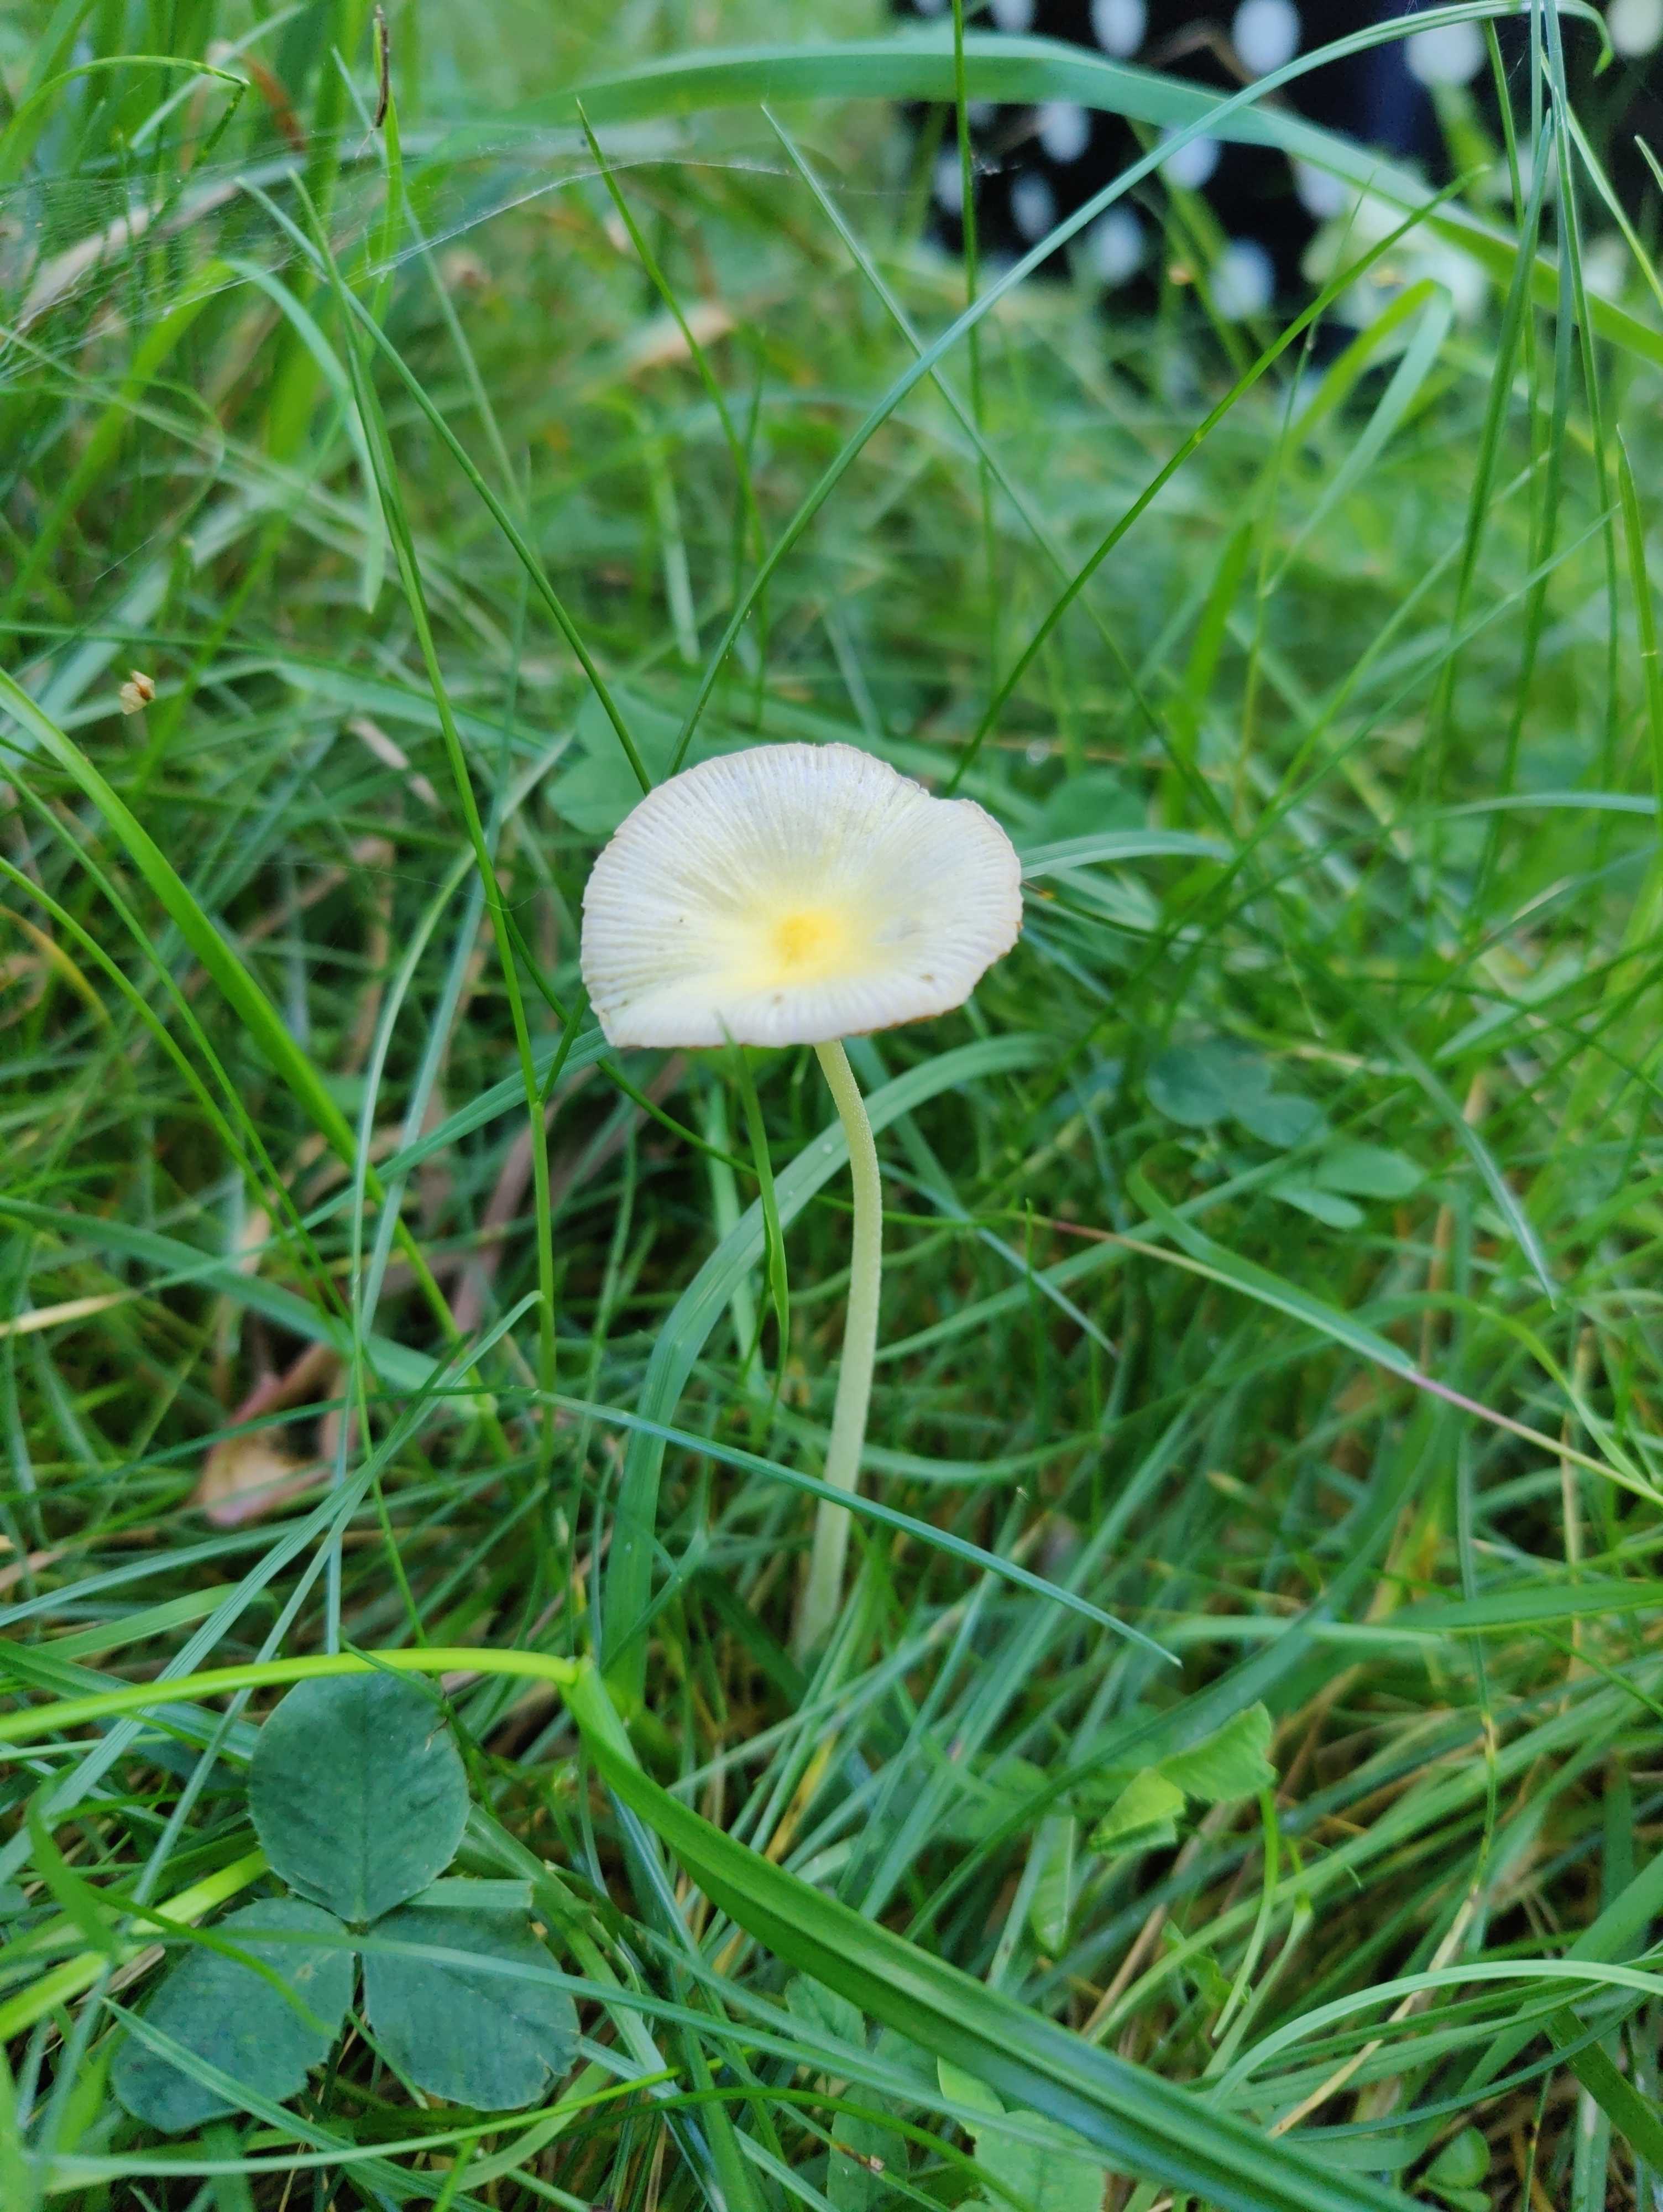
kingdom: Fungi
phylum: Basidiomycota
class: Agaricomycetes
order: Agaricales
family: Bolbitiaceae
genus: Bolbitius
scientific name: Bolbitius titubans
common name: almindelig gulhat
